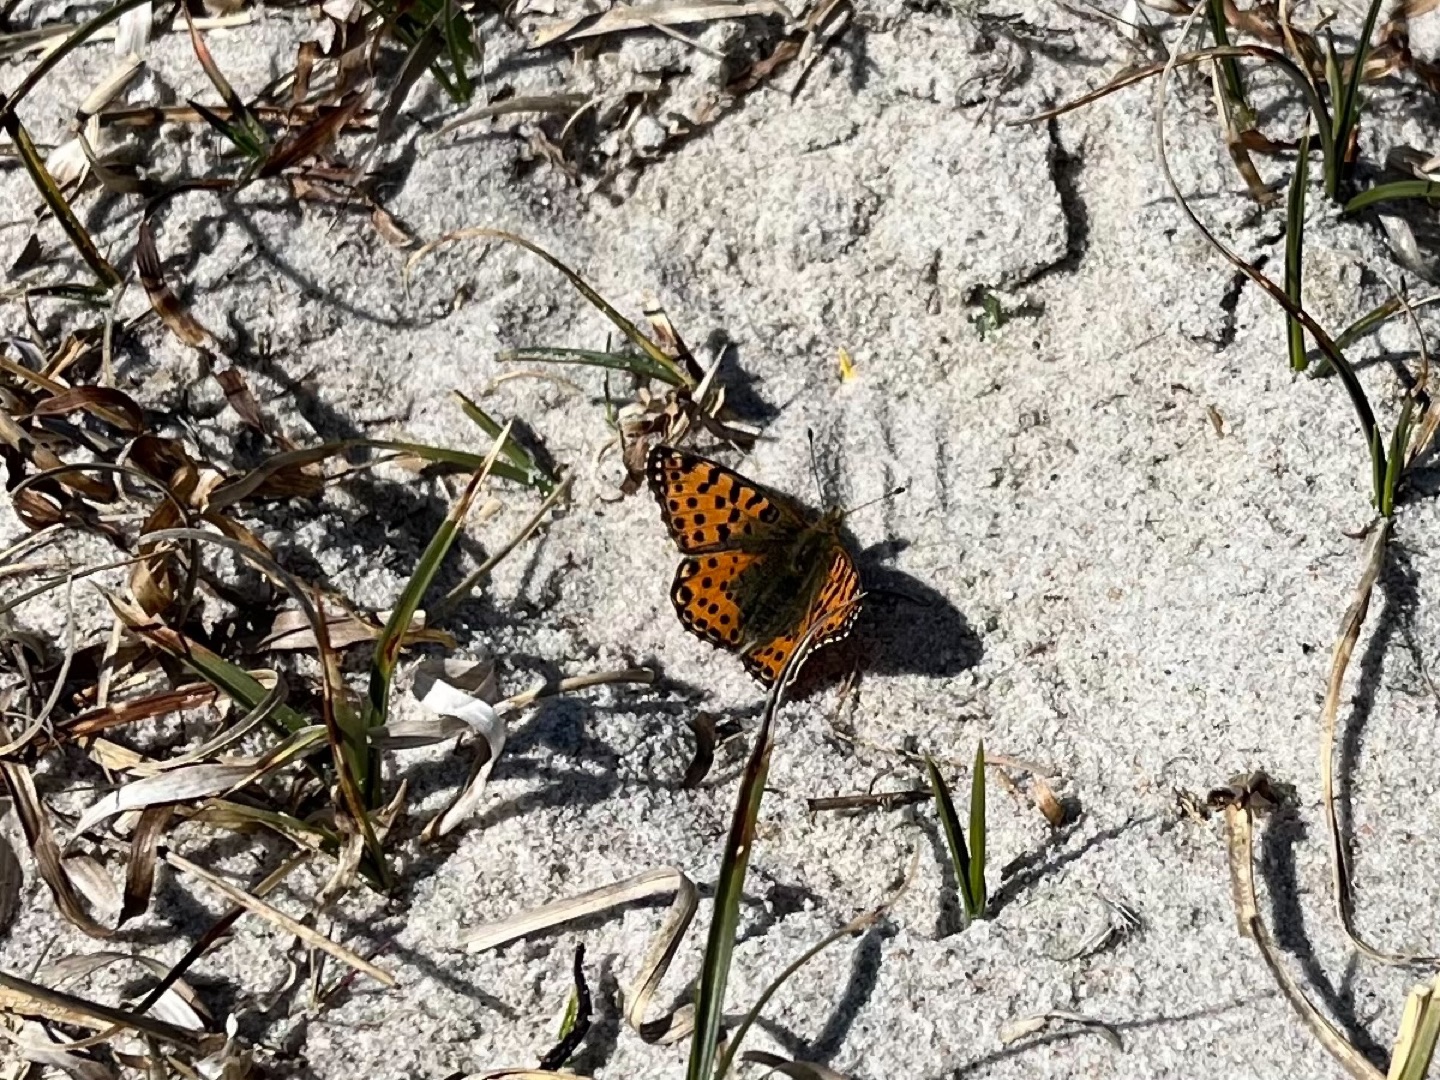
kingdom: Animalia
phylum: Arthropoda
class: Insecta
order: Lepidoptera
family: Nymphalidae
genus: Issoria
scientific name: Issoria lathonia
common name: Storplettet perlemorsommerfugl
